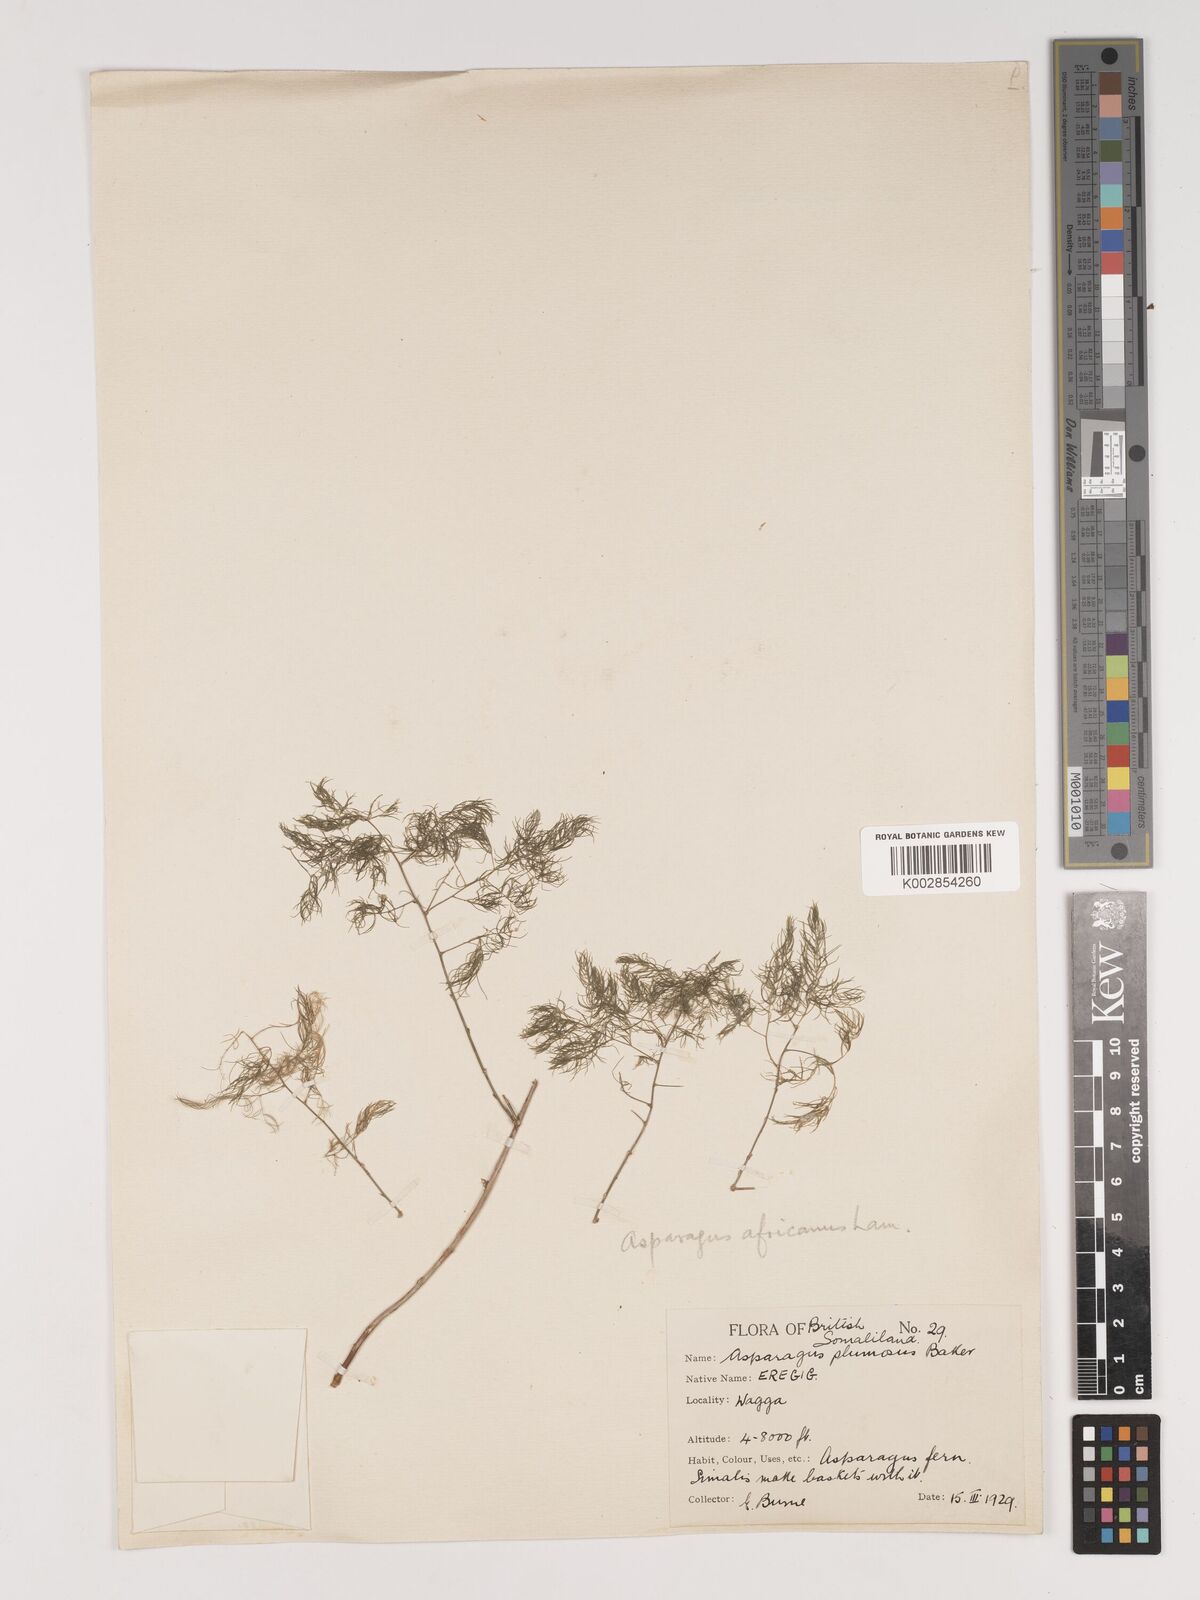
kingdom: Plantae
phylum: Tracheophyta
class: Liliopsida
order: Asparagales
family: Asparagaceae
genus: Asparagus
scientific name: Asparagus setaceus
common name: Common asparagus fern
